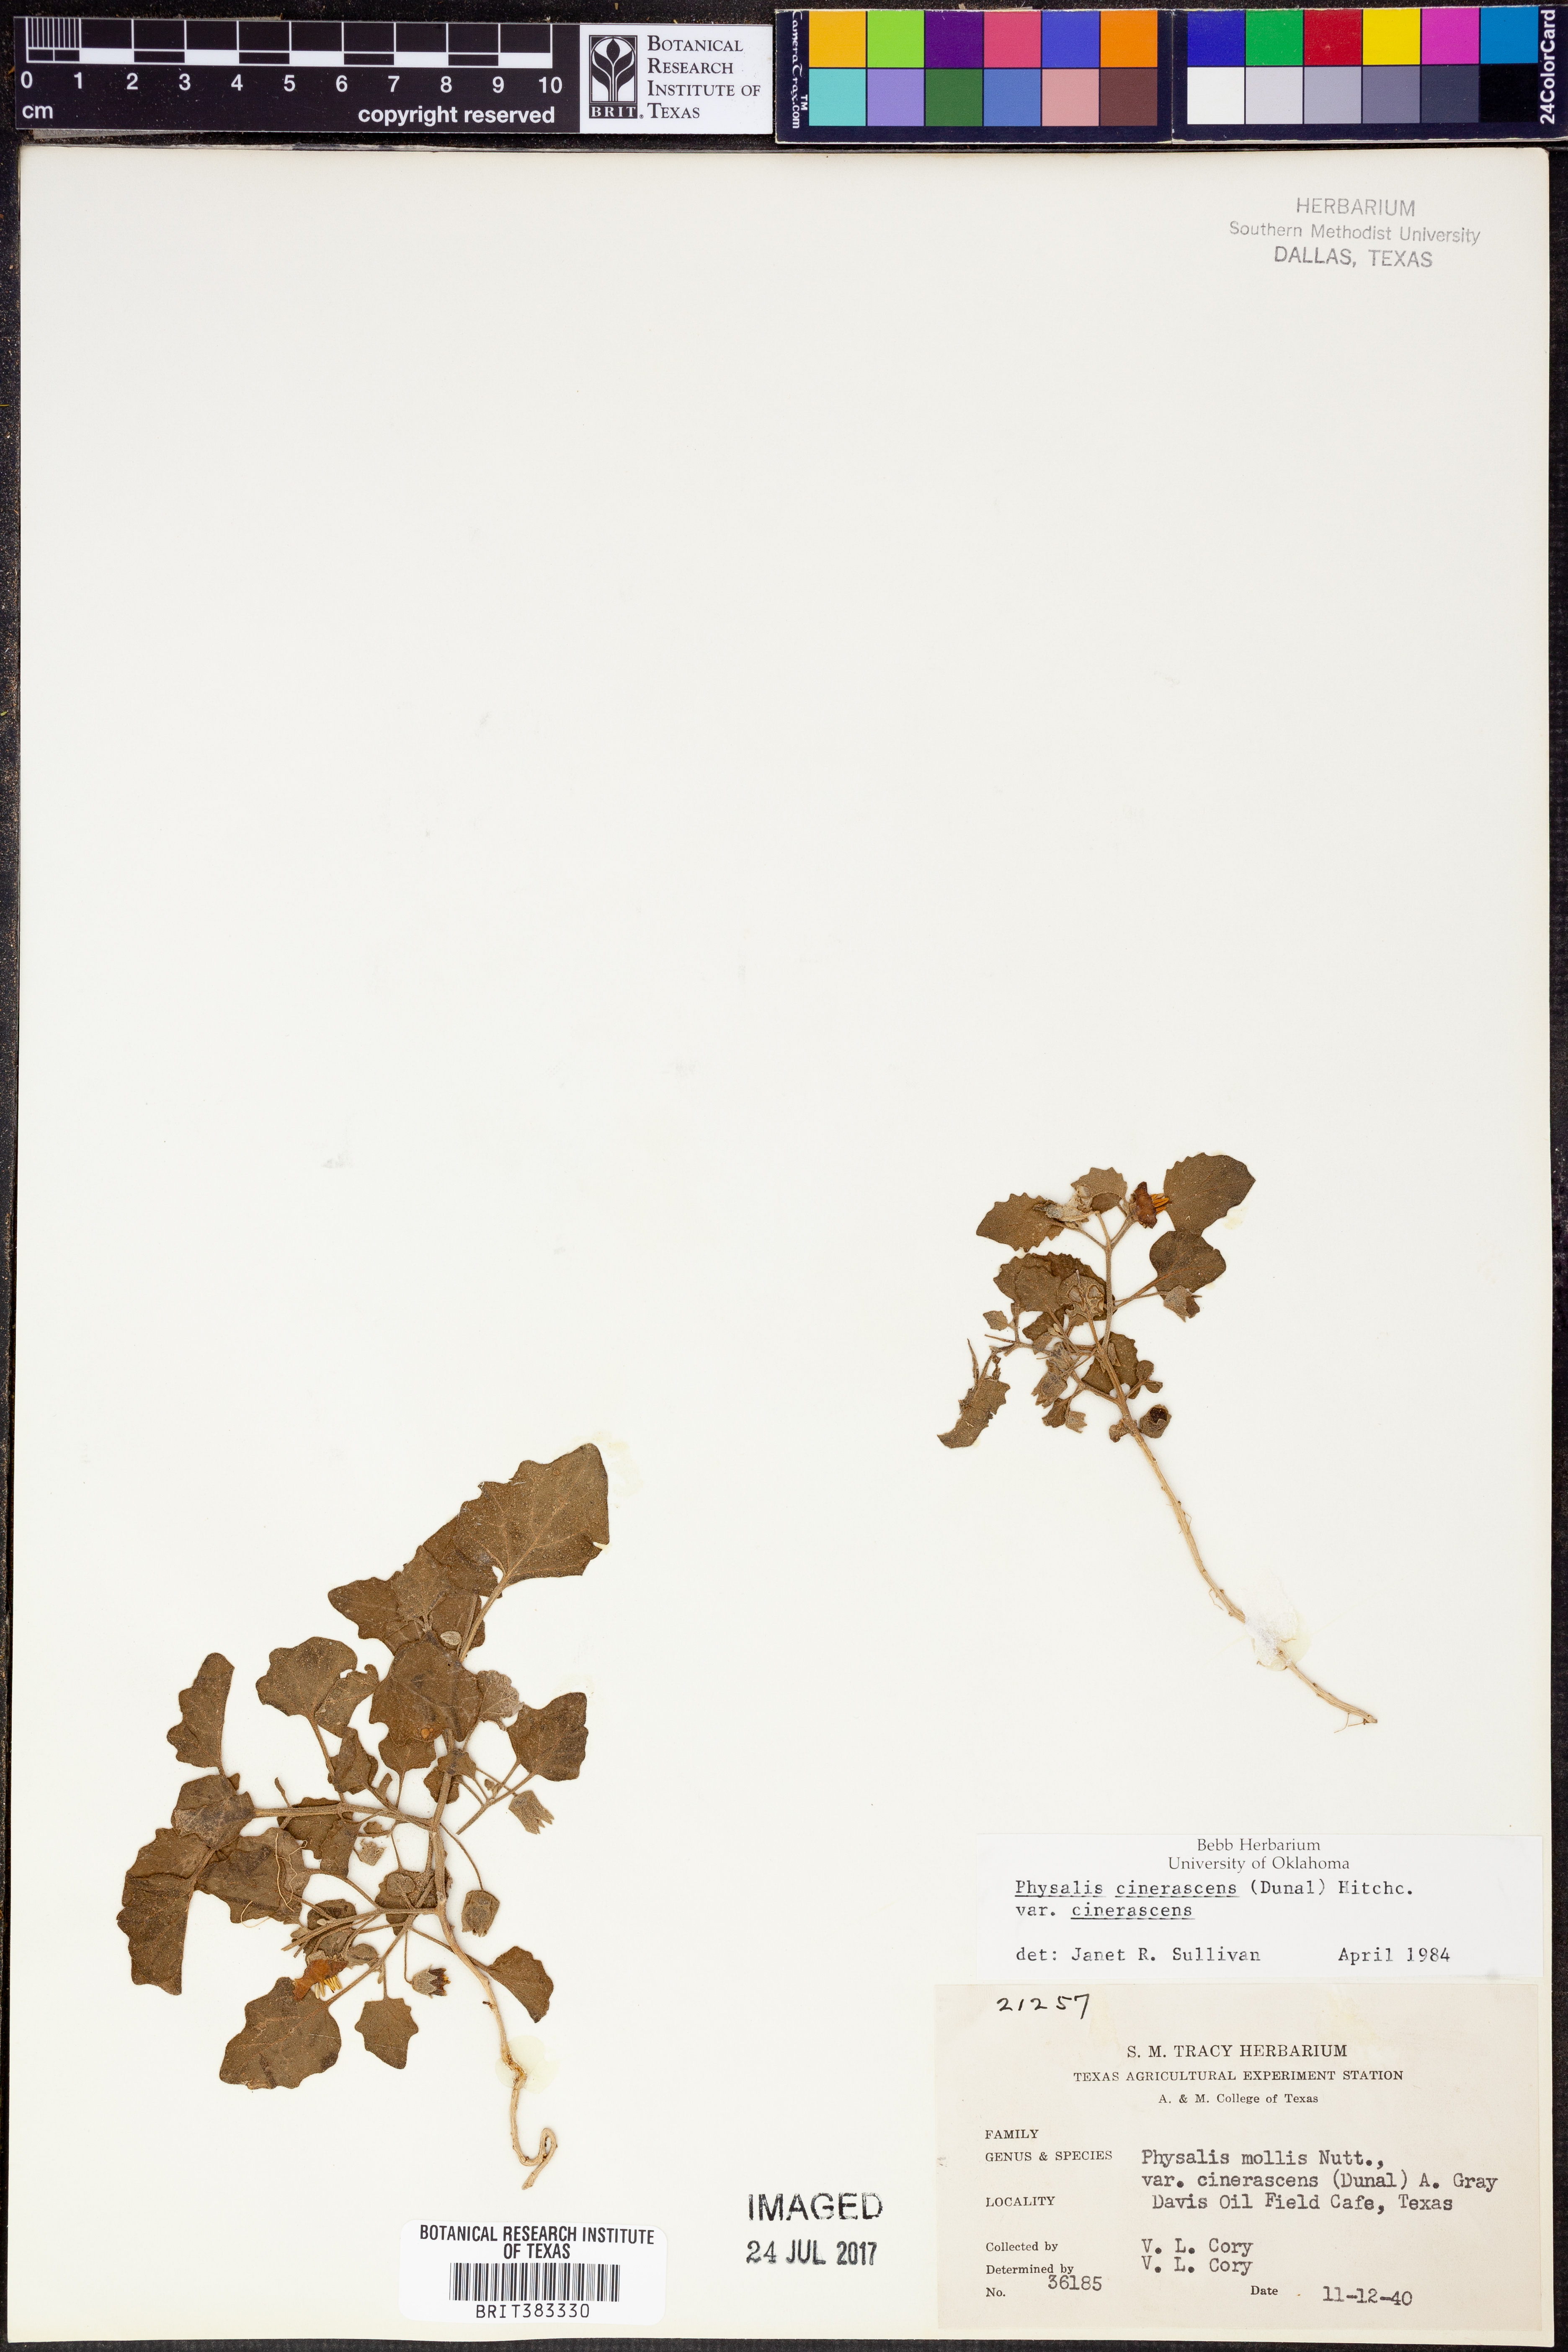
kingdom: Plantae
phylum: Tracheophyta
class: Magnoliopsida
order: Solanales
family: Solanaceae
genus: Physalis
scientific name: Physalis cinerascens
